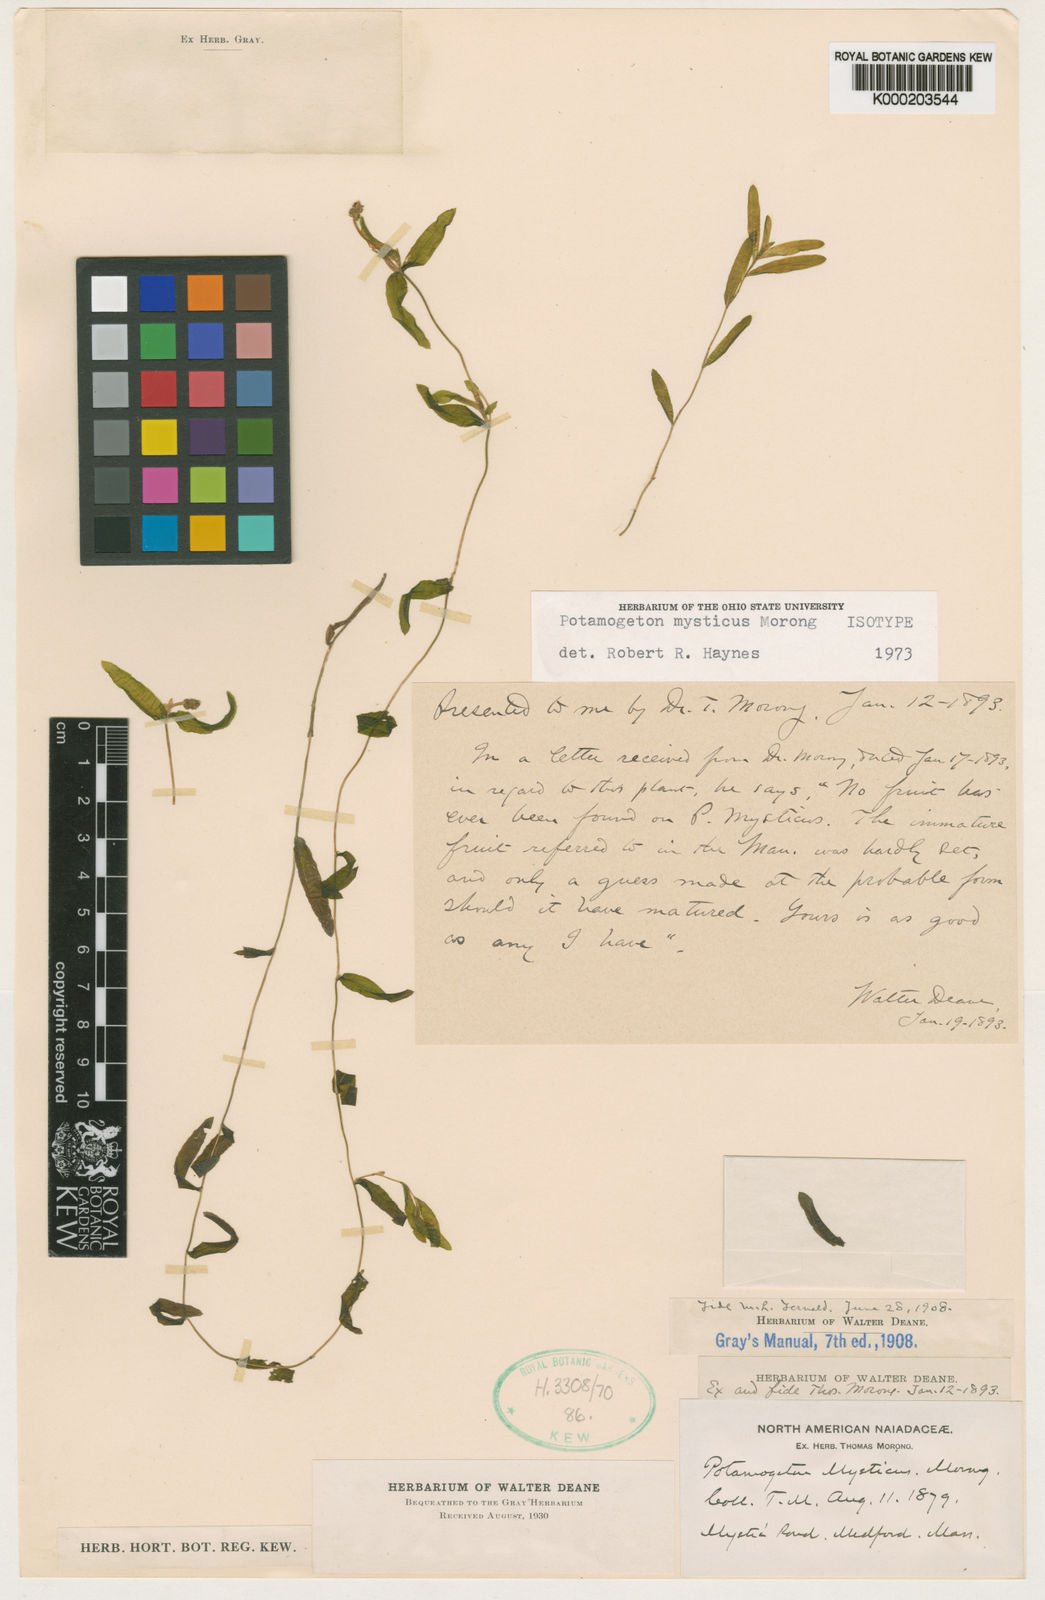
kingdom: Plantae
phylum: Tracheophyta
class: Liliopsida
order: Alismatales
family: Potamogetonaceae
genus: Potamogeton
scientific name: Potamogeton mysticus
